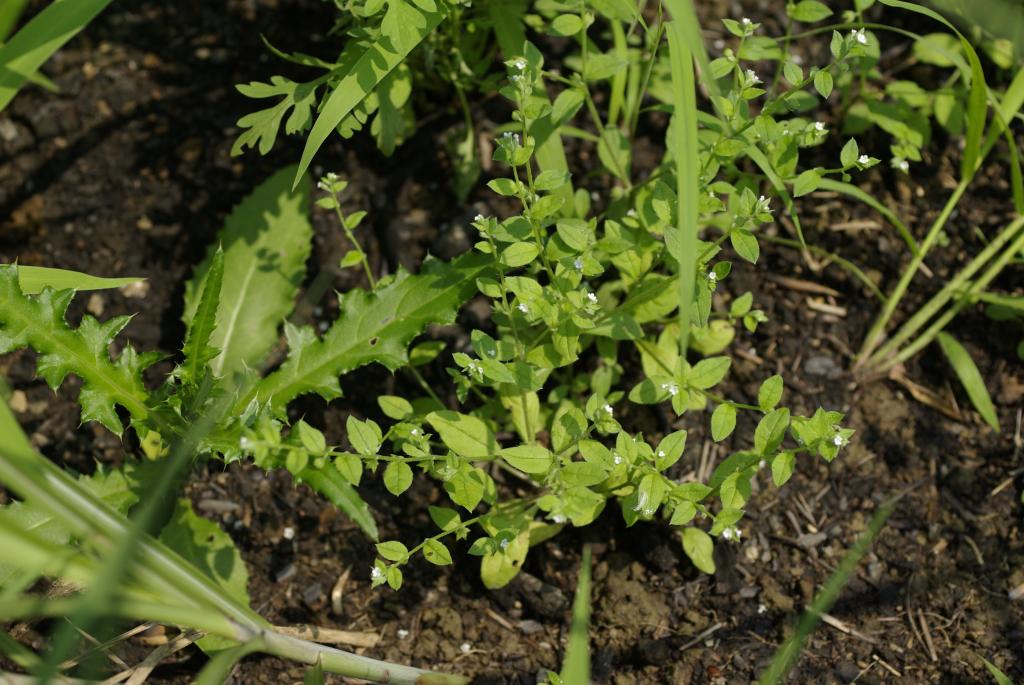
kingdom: Plantae
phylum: Tracheophyta
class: Magnoliopsida
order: Boraginales
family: Boraginaceae
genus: Bothriospermum
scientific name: Bothriospermum zeylanicum
